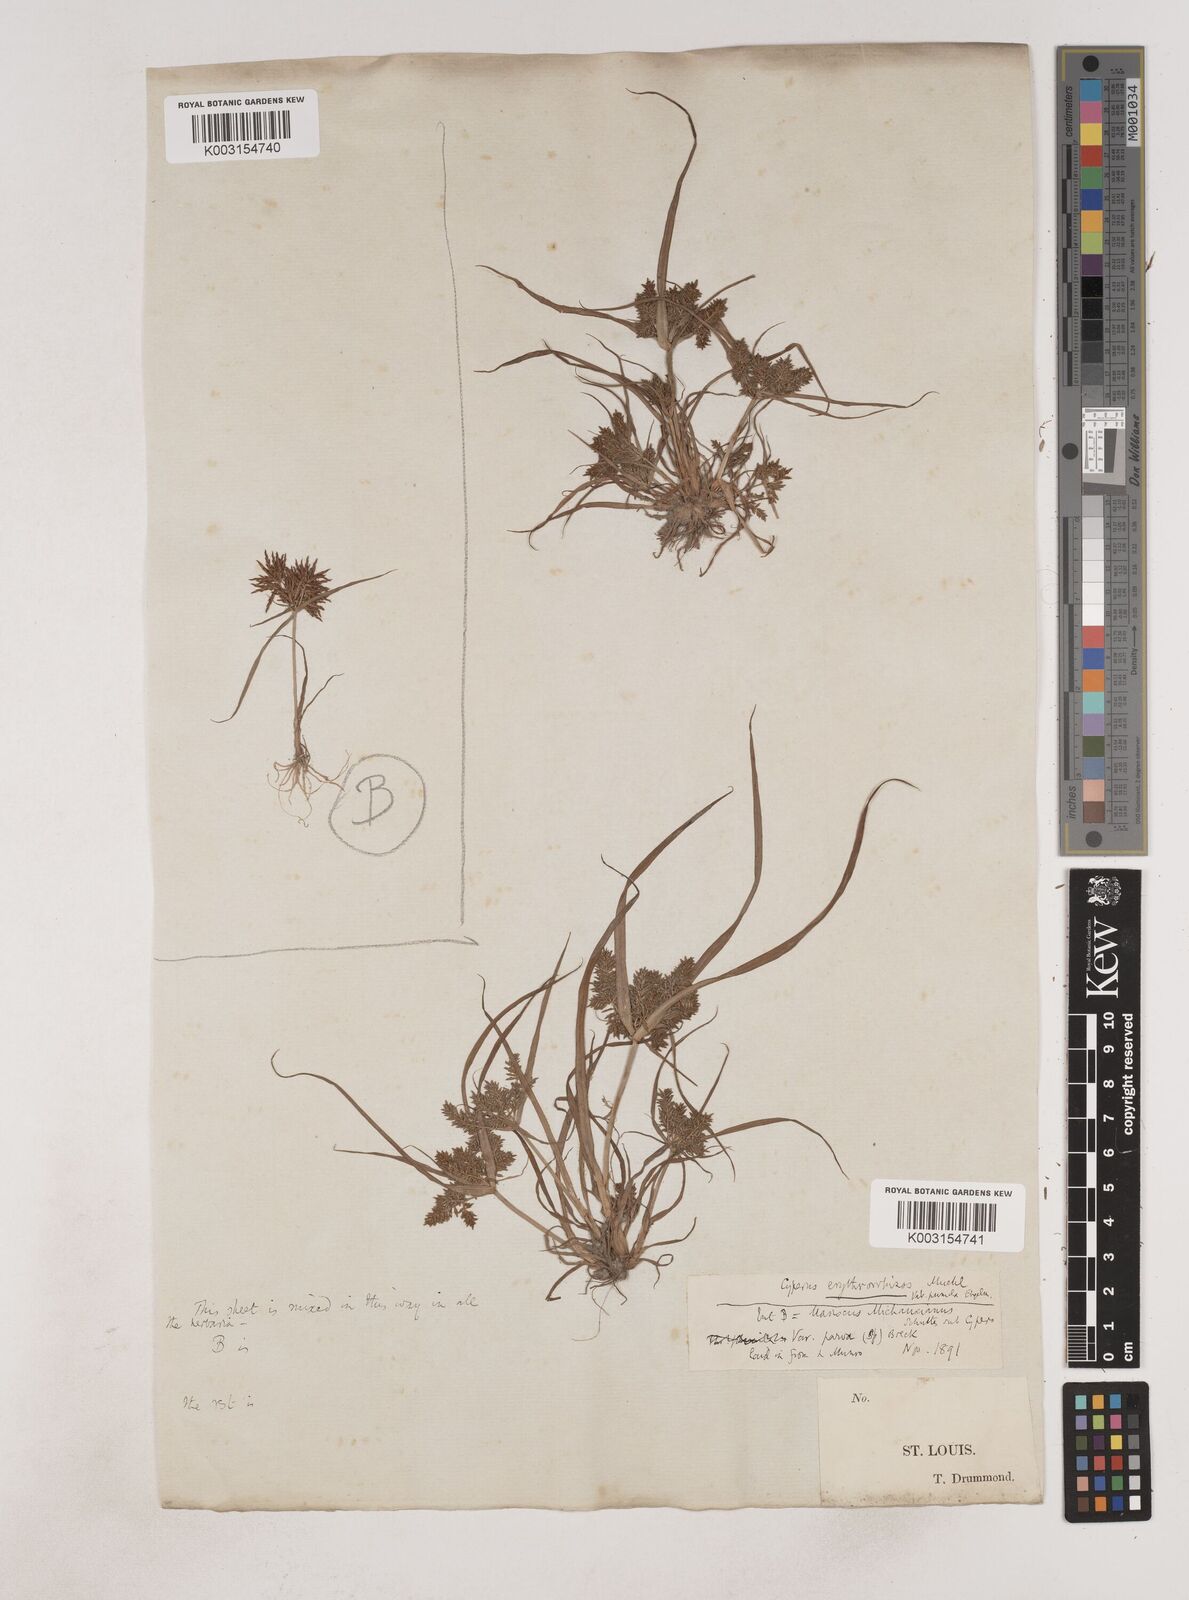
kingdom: Plantae
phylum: Tracheophyta
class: Liliopsida
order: Poales
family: Cyperaceae
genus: Cyperus
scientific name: Cyperus erythrorhizos
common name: Red-root flat sedge
